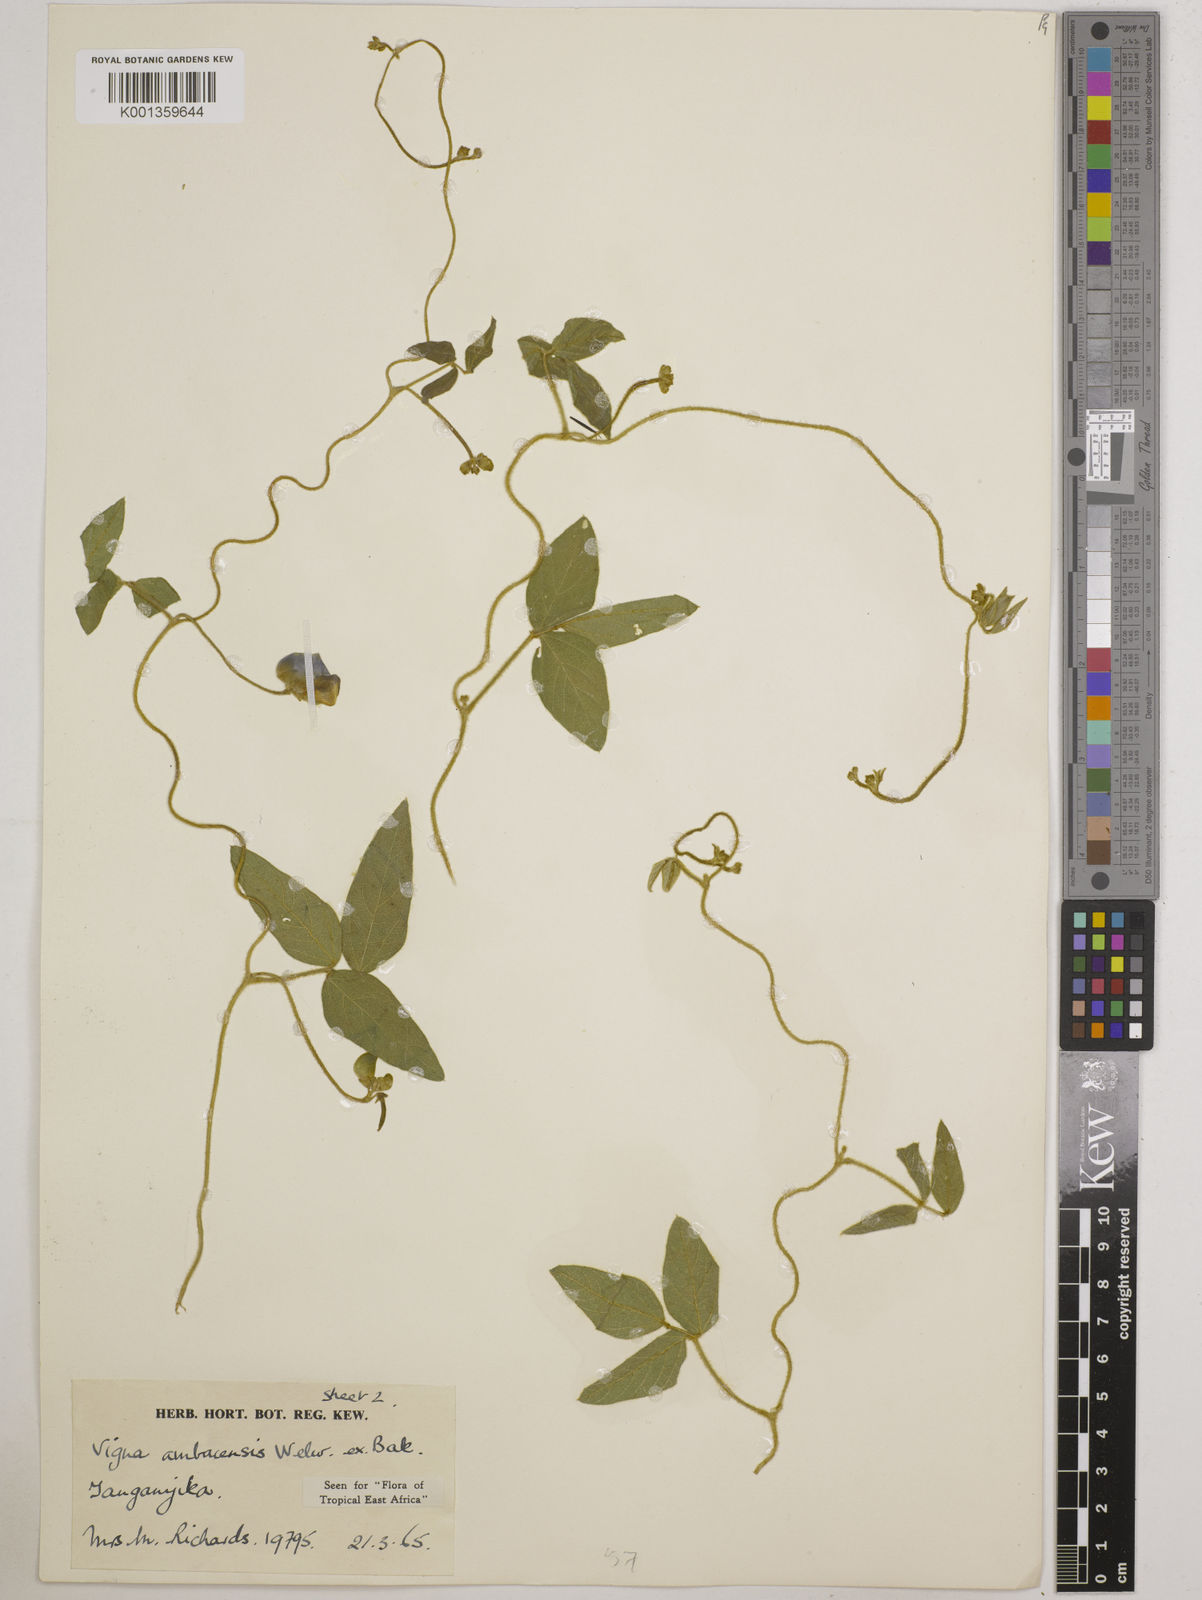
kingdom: Plantae
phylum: Tracheophyta
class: Magnoliopsida
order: Fabales
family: Fabaceae
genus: Vigna
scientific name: Vigna ambacensis
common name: Tsarkiyan zomo
